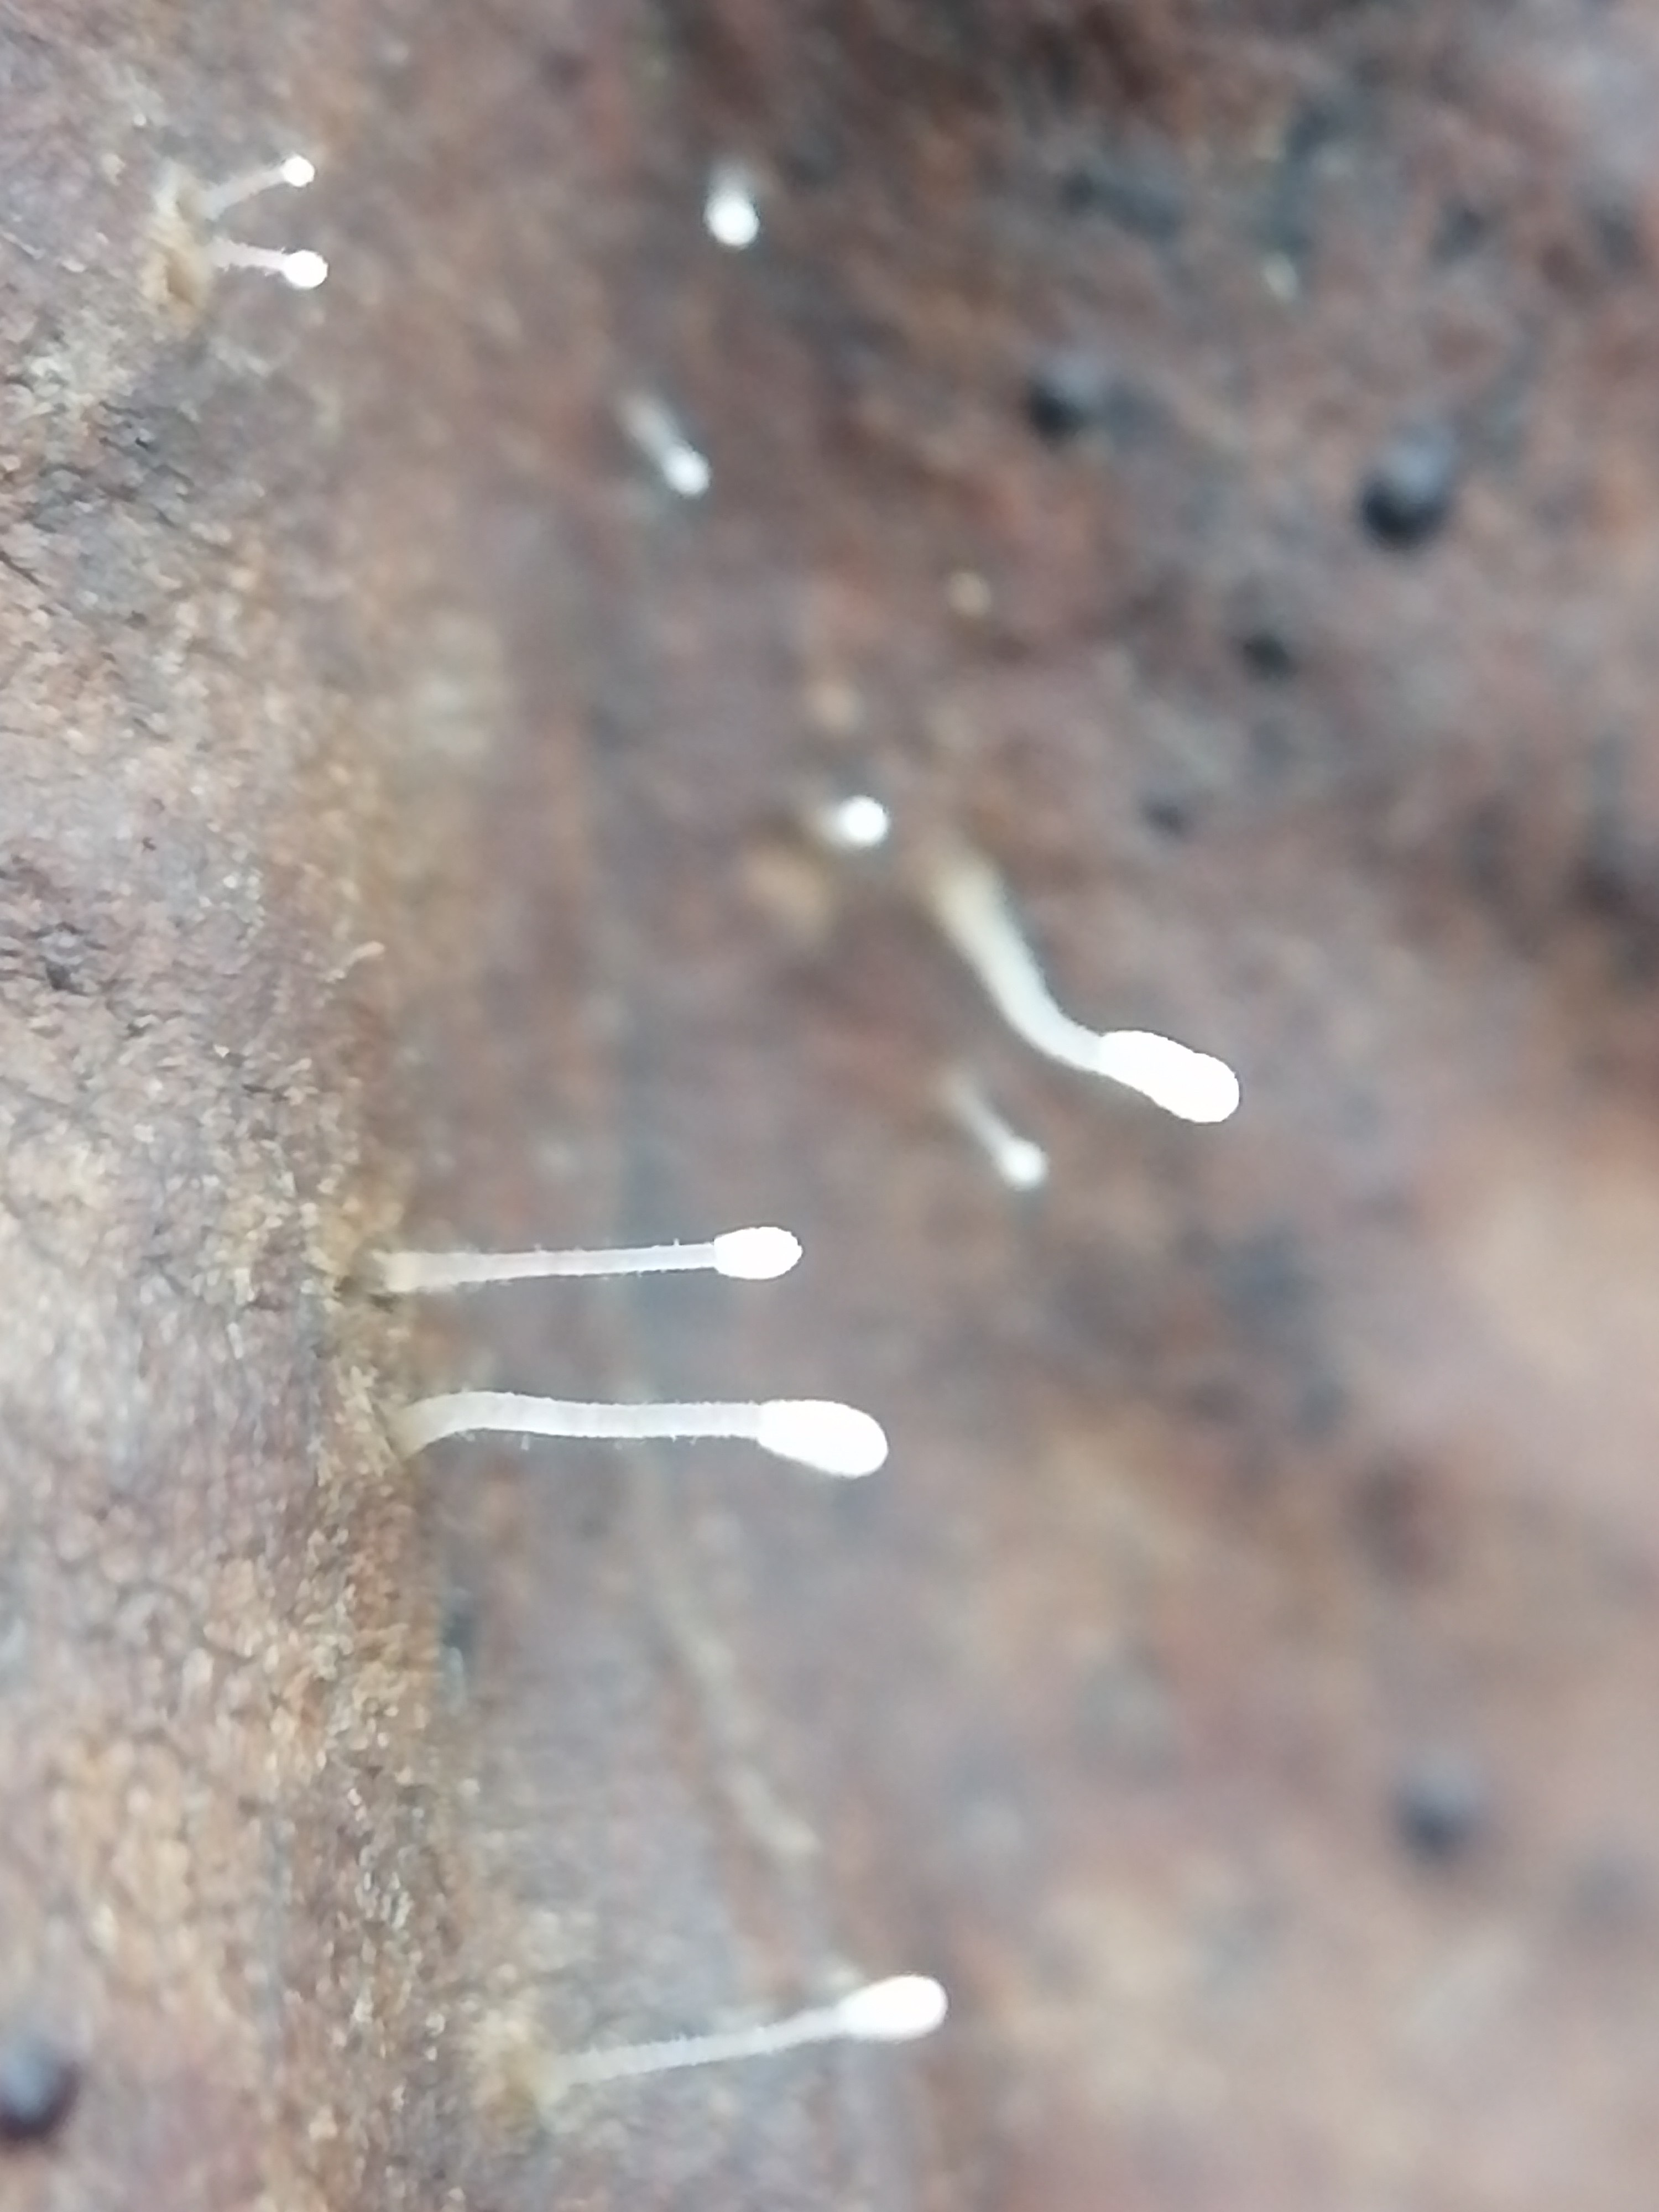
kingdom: Fungi
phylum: Basidiomycota
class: Agaricomycetes
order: Agaricales
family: Typhulaceae
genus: Typhula
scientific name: Typhula setipes
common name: liden trådkølle
